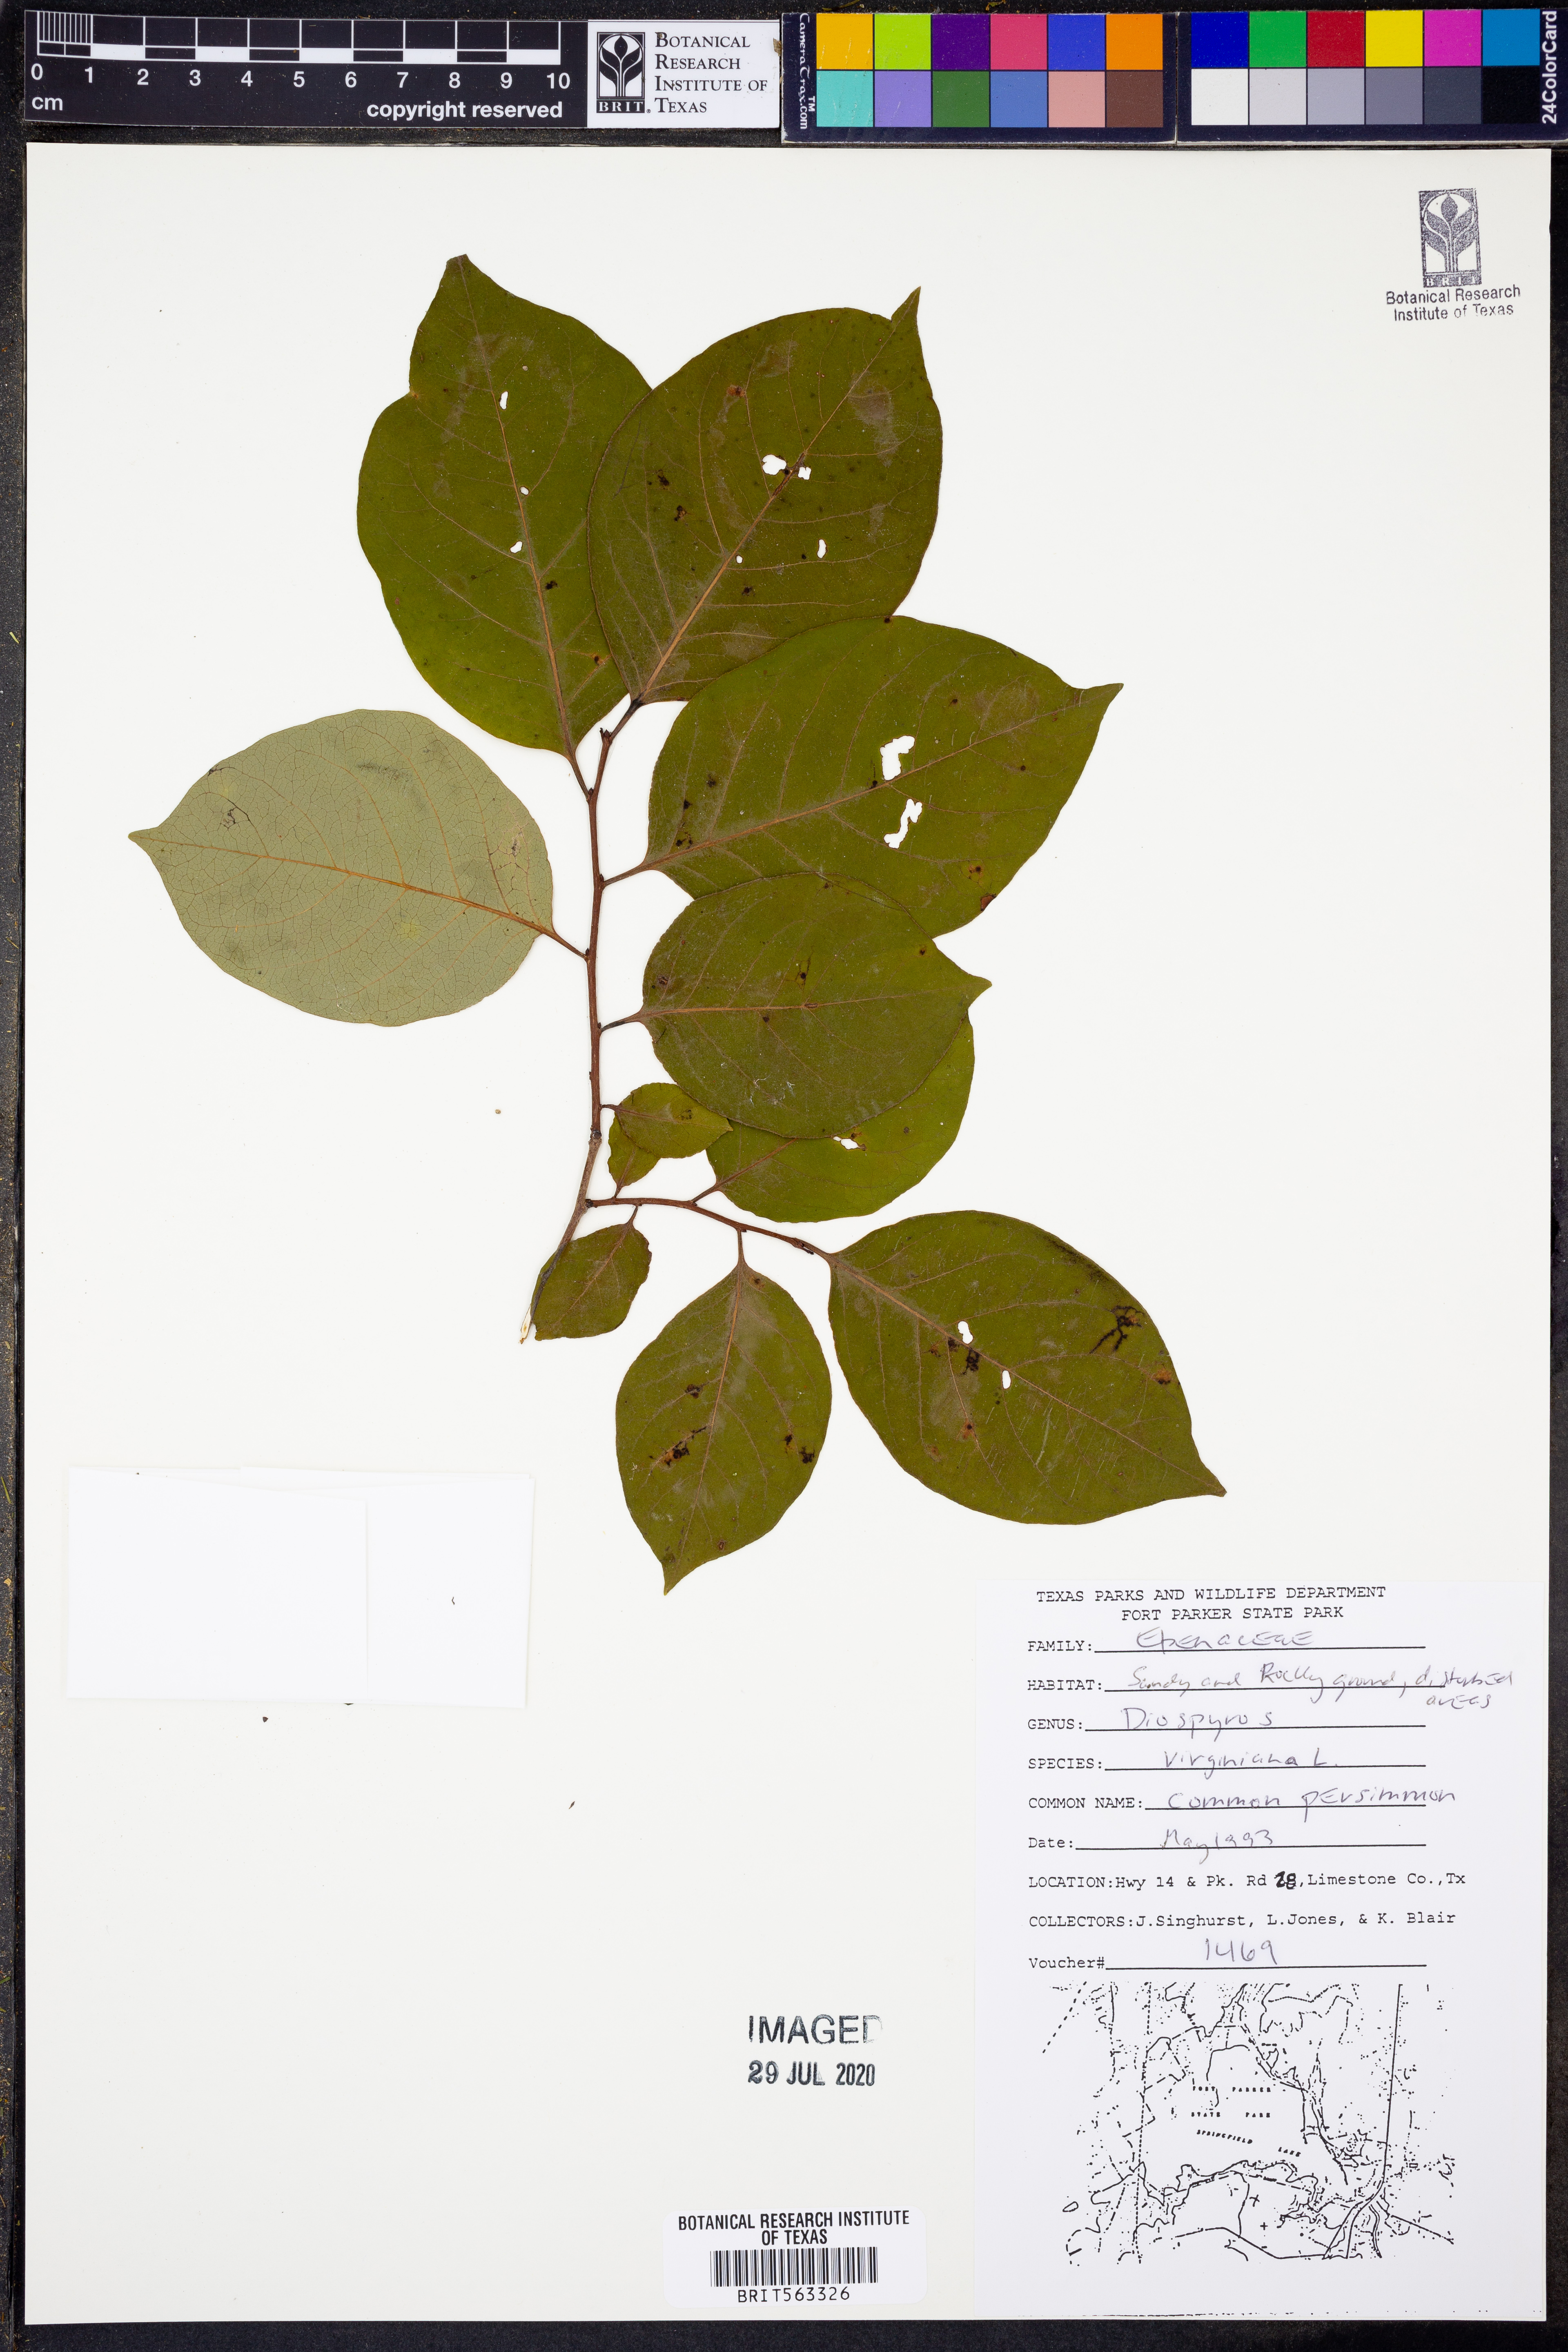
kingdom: Plantae
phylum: Tracheophyta
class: Magnoliopsida
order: Ericales
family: Ebenaceae
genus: Diospyros
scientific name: Diospyros virginiana
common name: Persimmon
